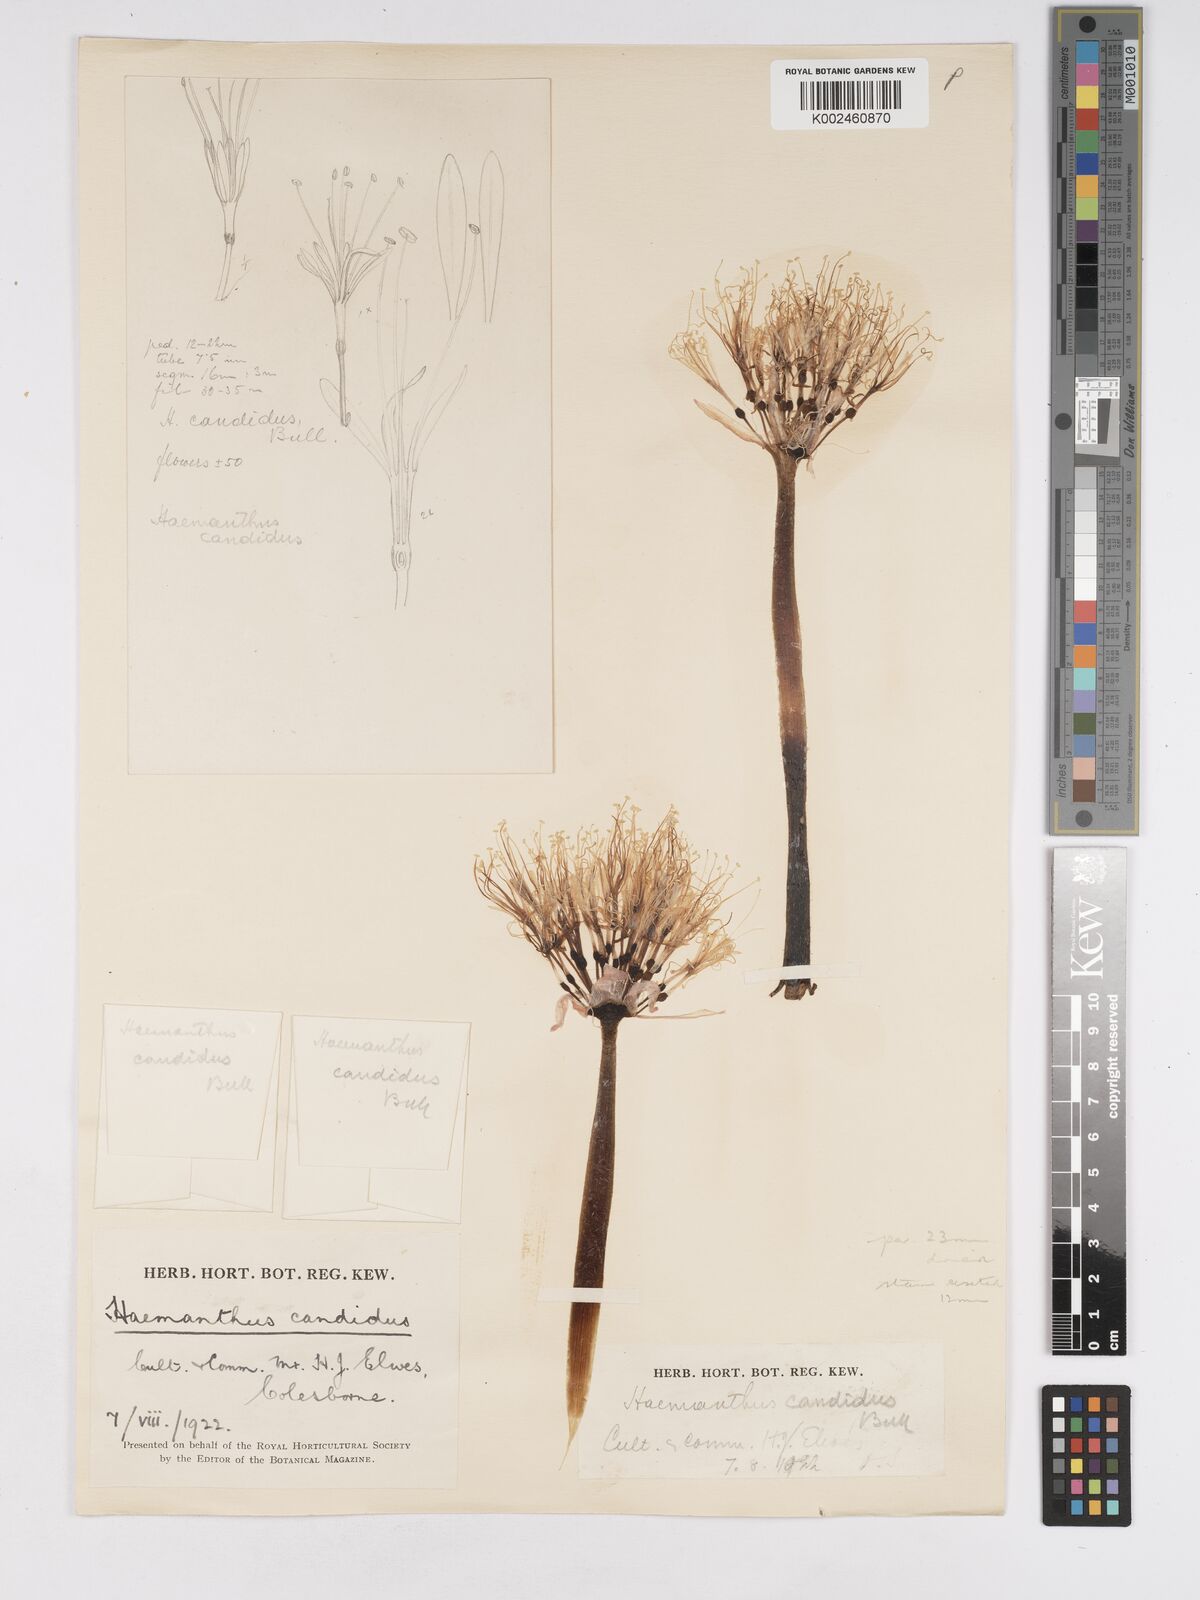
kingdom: Plantae
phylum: Tracheophyta
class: Liliopsida
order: Asparagales
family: Amaryllidaceae
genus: Haemanthus
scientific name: Haemanthus humilis
